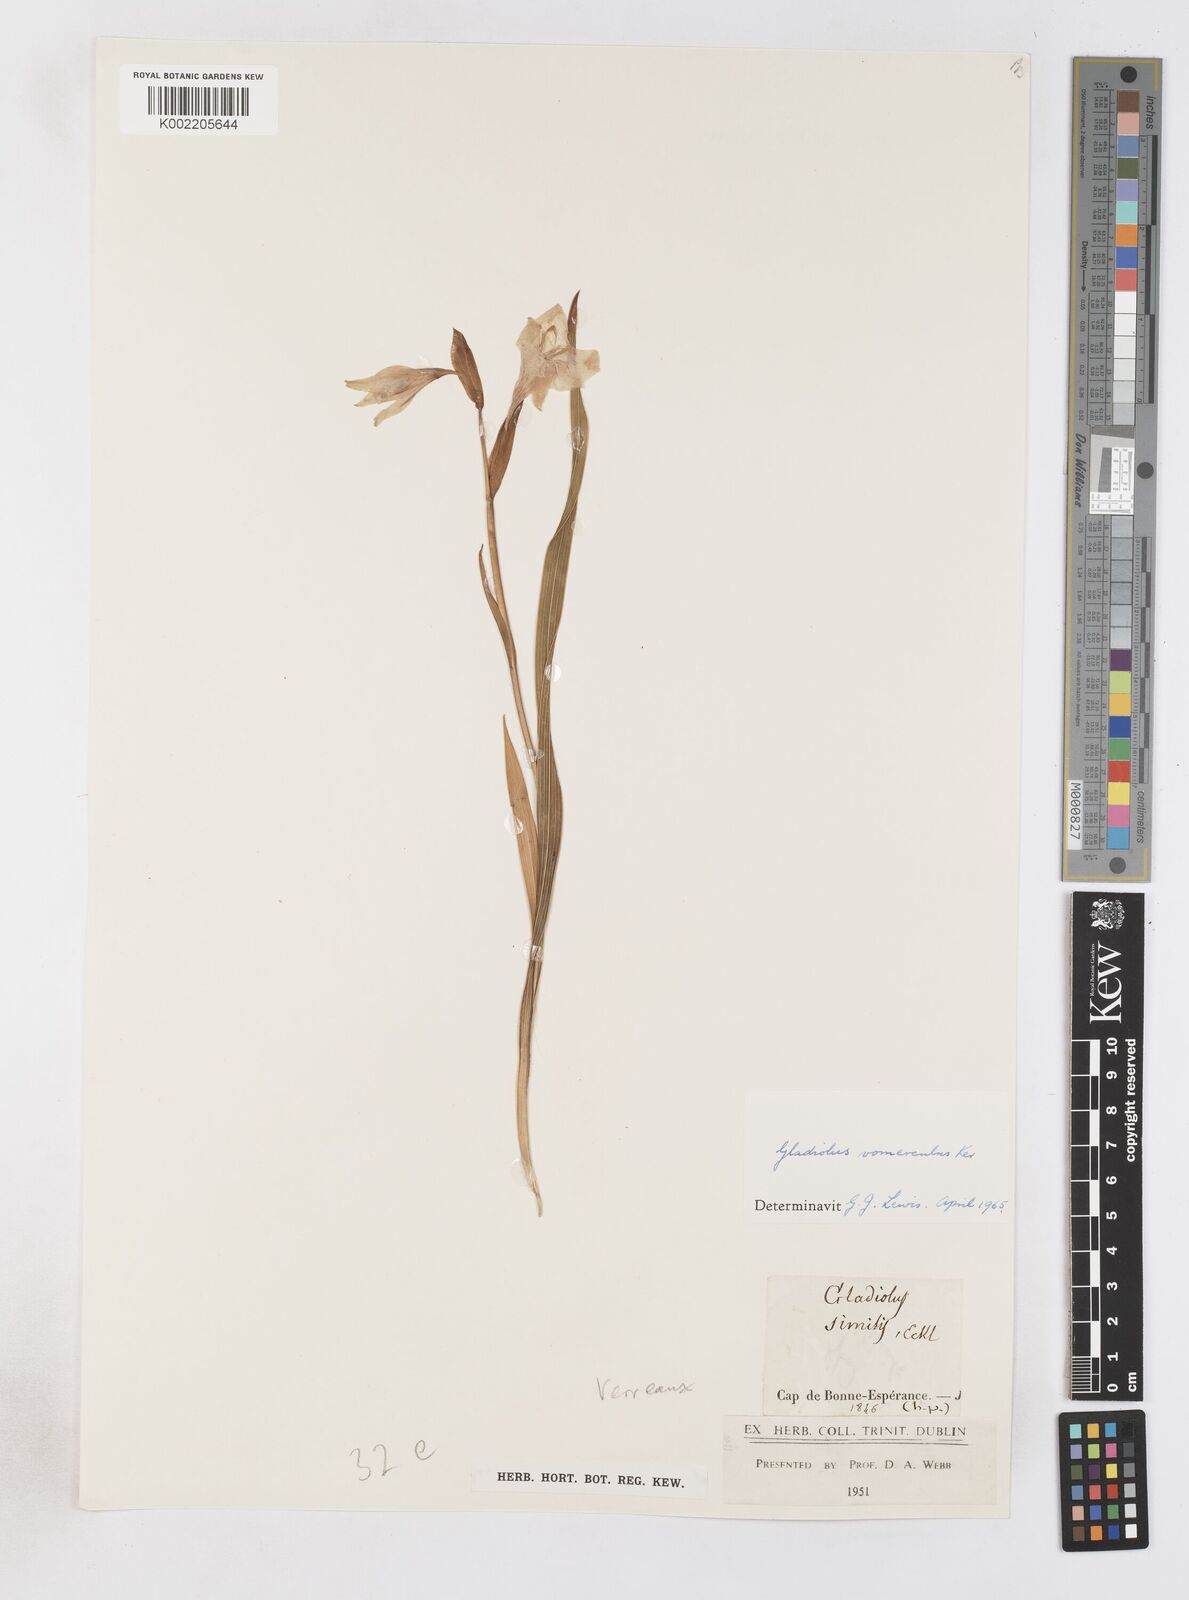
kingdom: Plantae
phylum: Tracheophyta
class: Liliopsida
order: Asparagales
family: Iridaceae
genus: Gladiolus
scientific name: Gladiolus rudis
